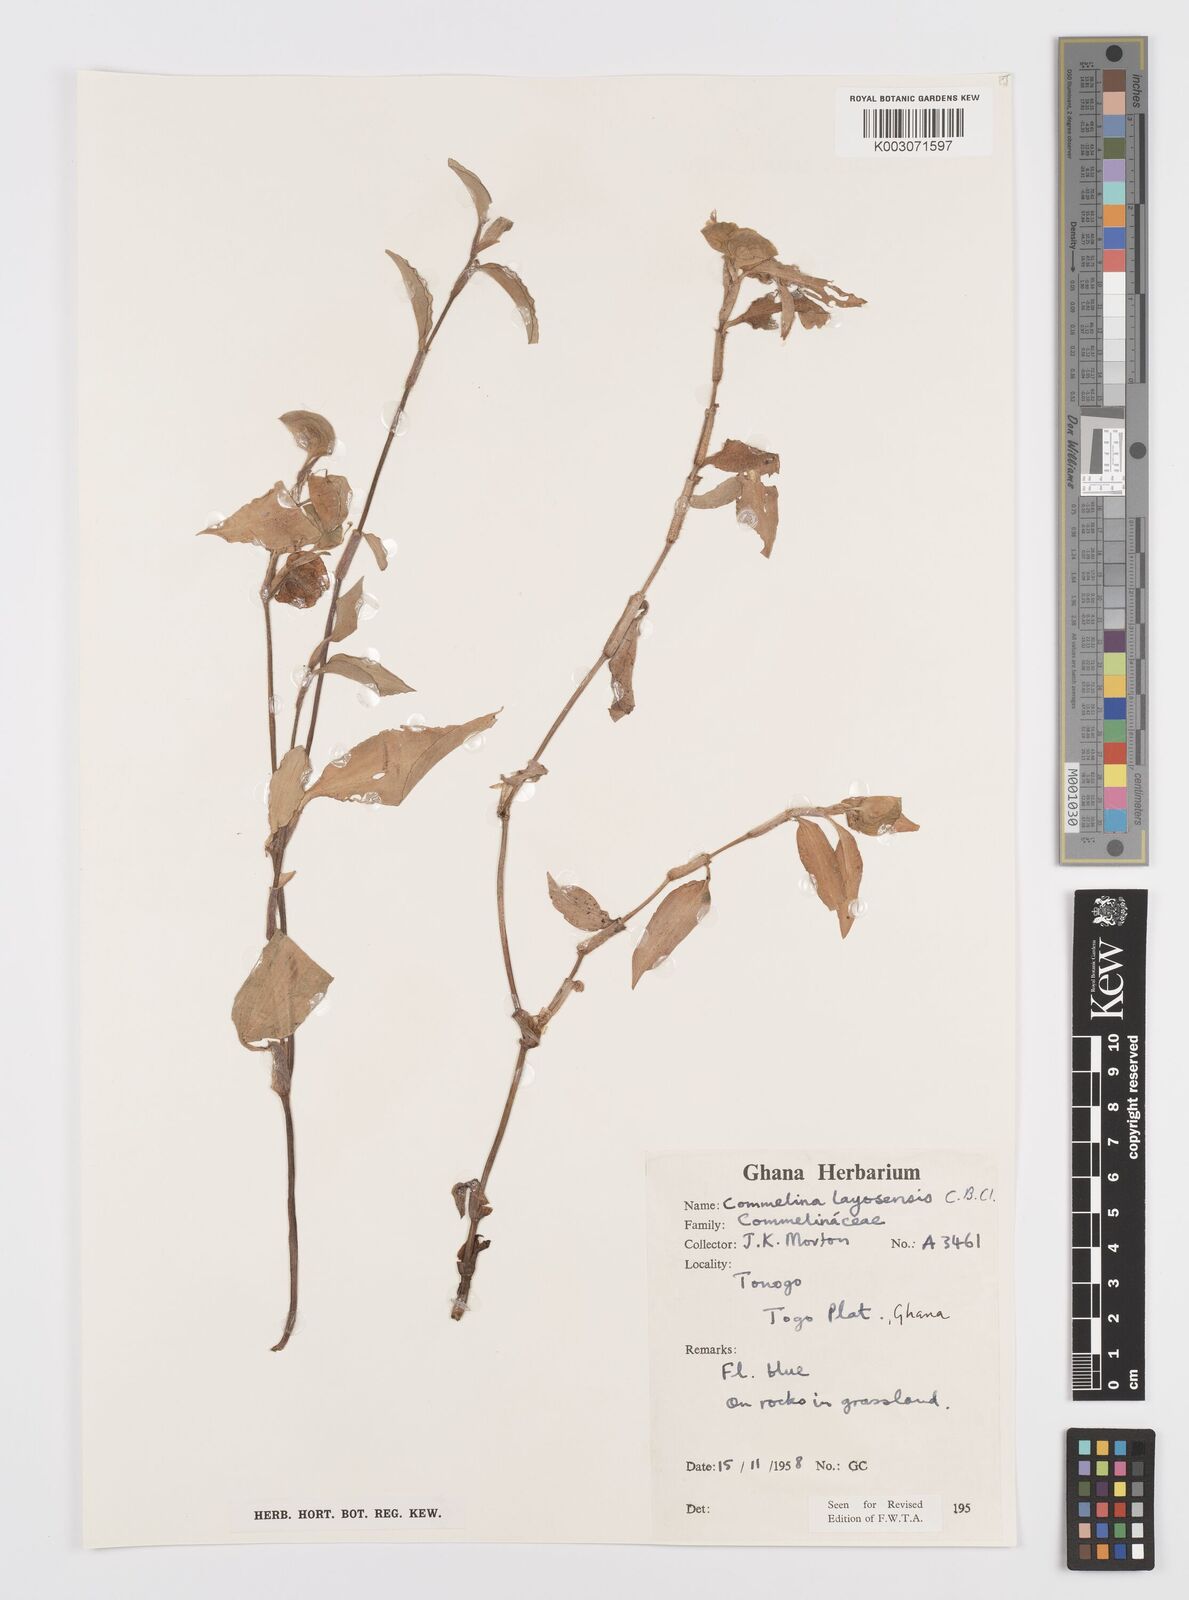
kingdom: Plantae
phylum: Tracheophyta
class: Liliopsida
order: Commelinales
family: Commelinaceae
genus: Commelina
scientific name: Commelina bracteosa
